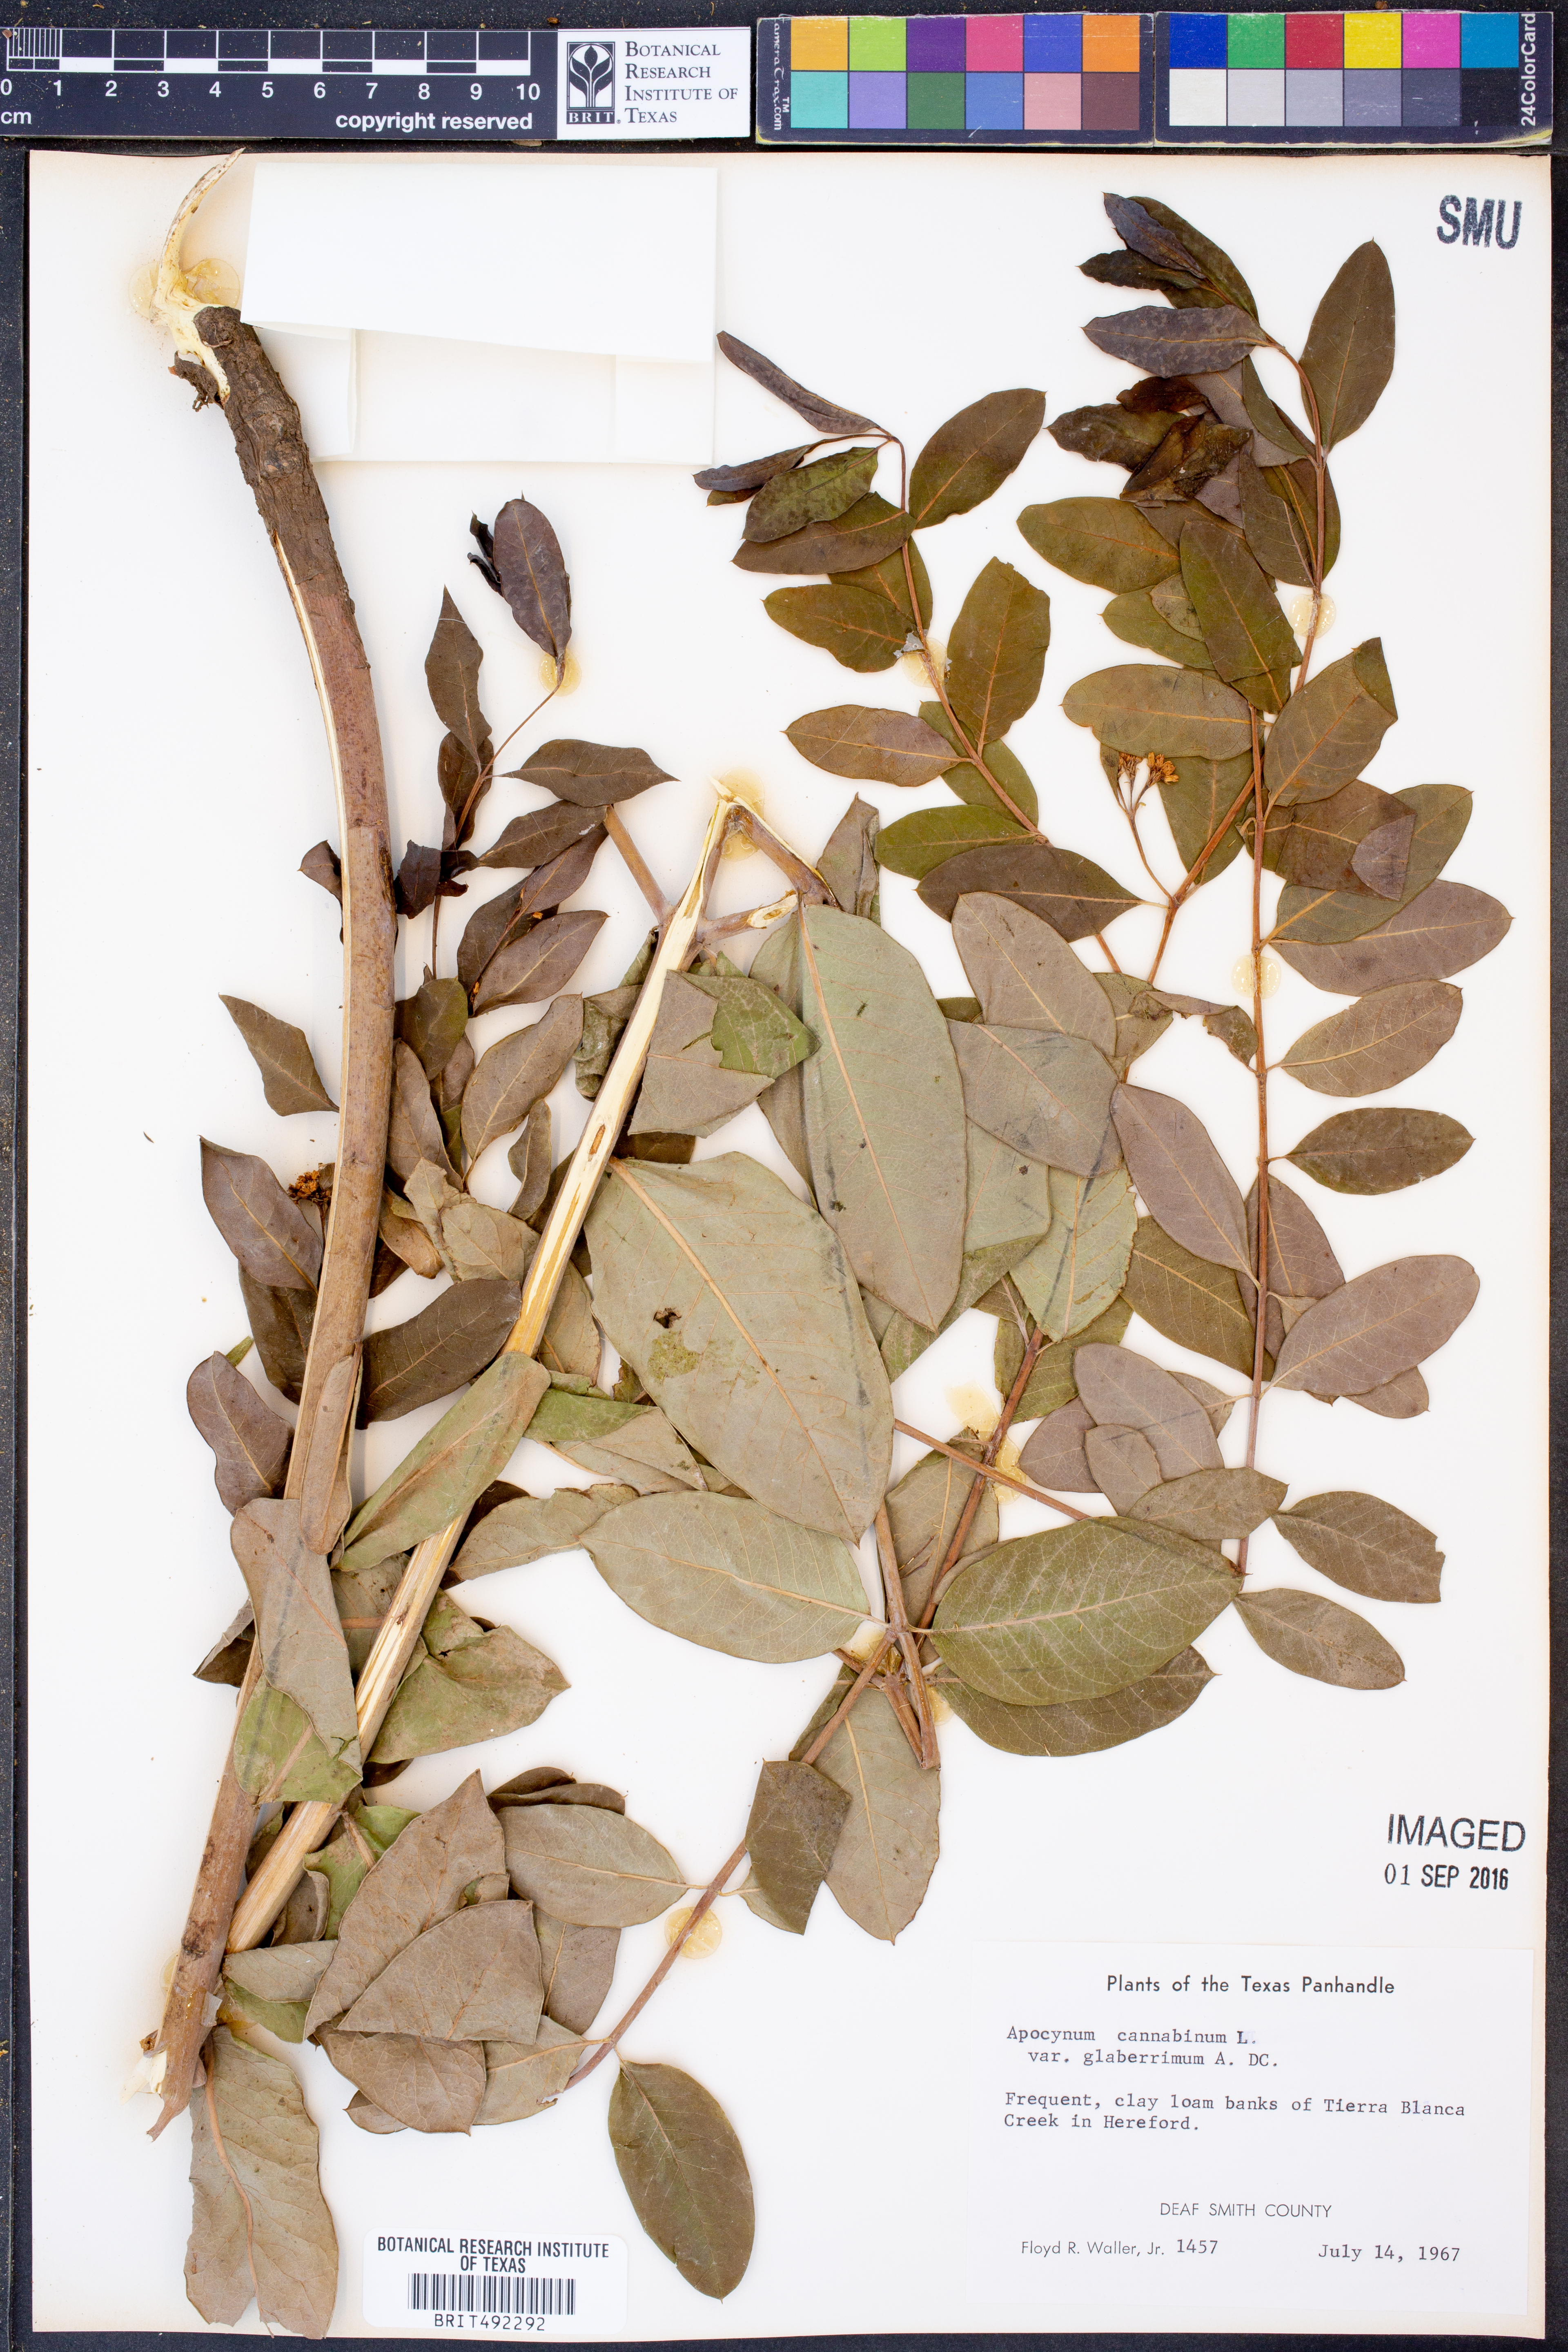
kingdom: Plantae
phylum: Tracheophyta
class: Magnoliopsida
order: Gentianales
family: Apocynaceae
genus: Apocynum
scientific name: Apocynum cannabinum
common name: Hemp dogbane
